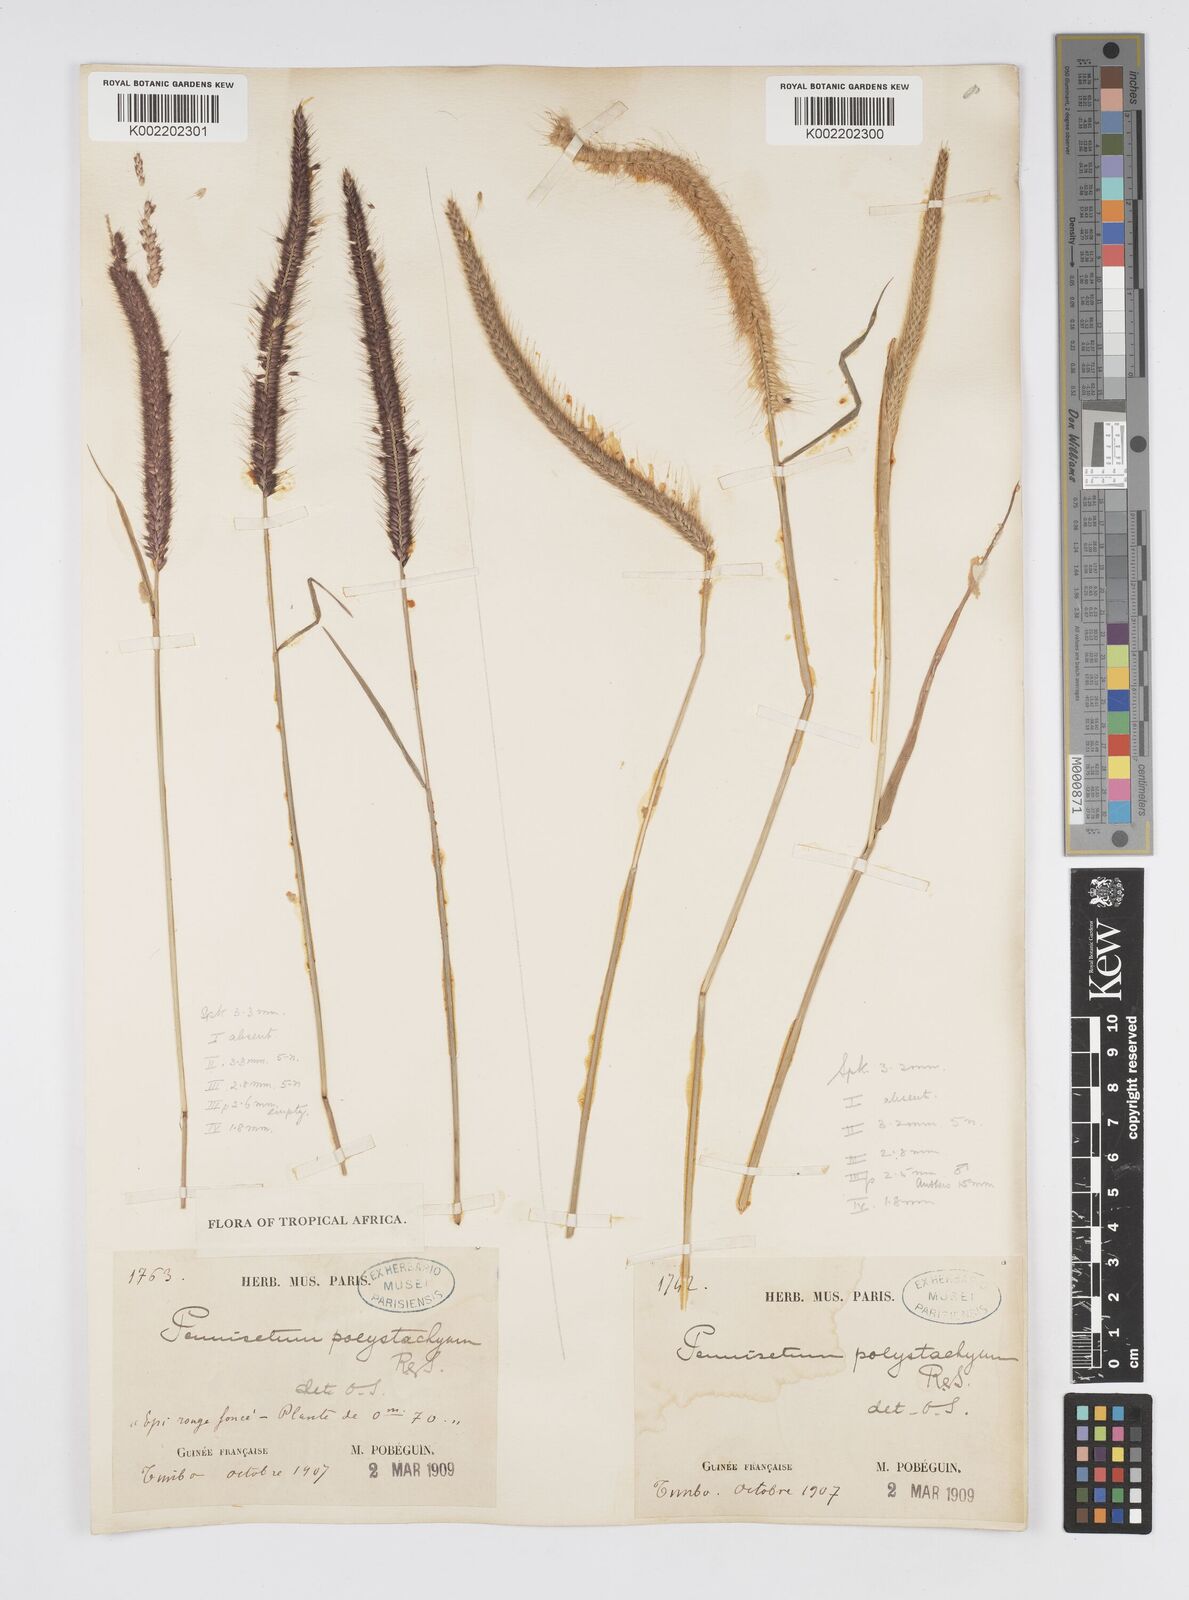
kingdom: Plantae
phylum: Tracheophyta
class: Liliopsida
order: Poales
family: Poaceae
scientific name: Poaceae
